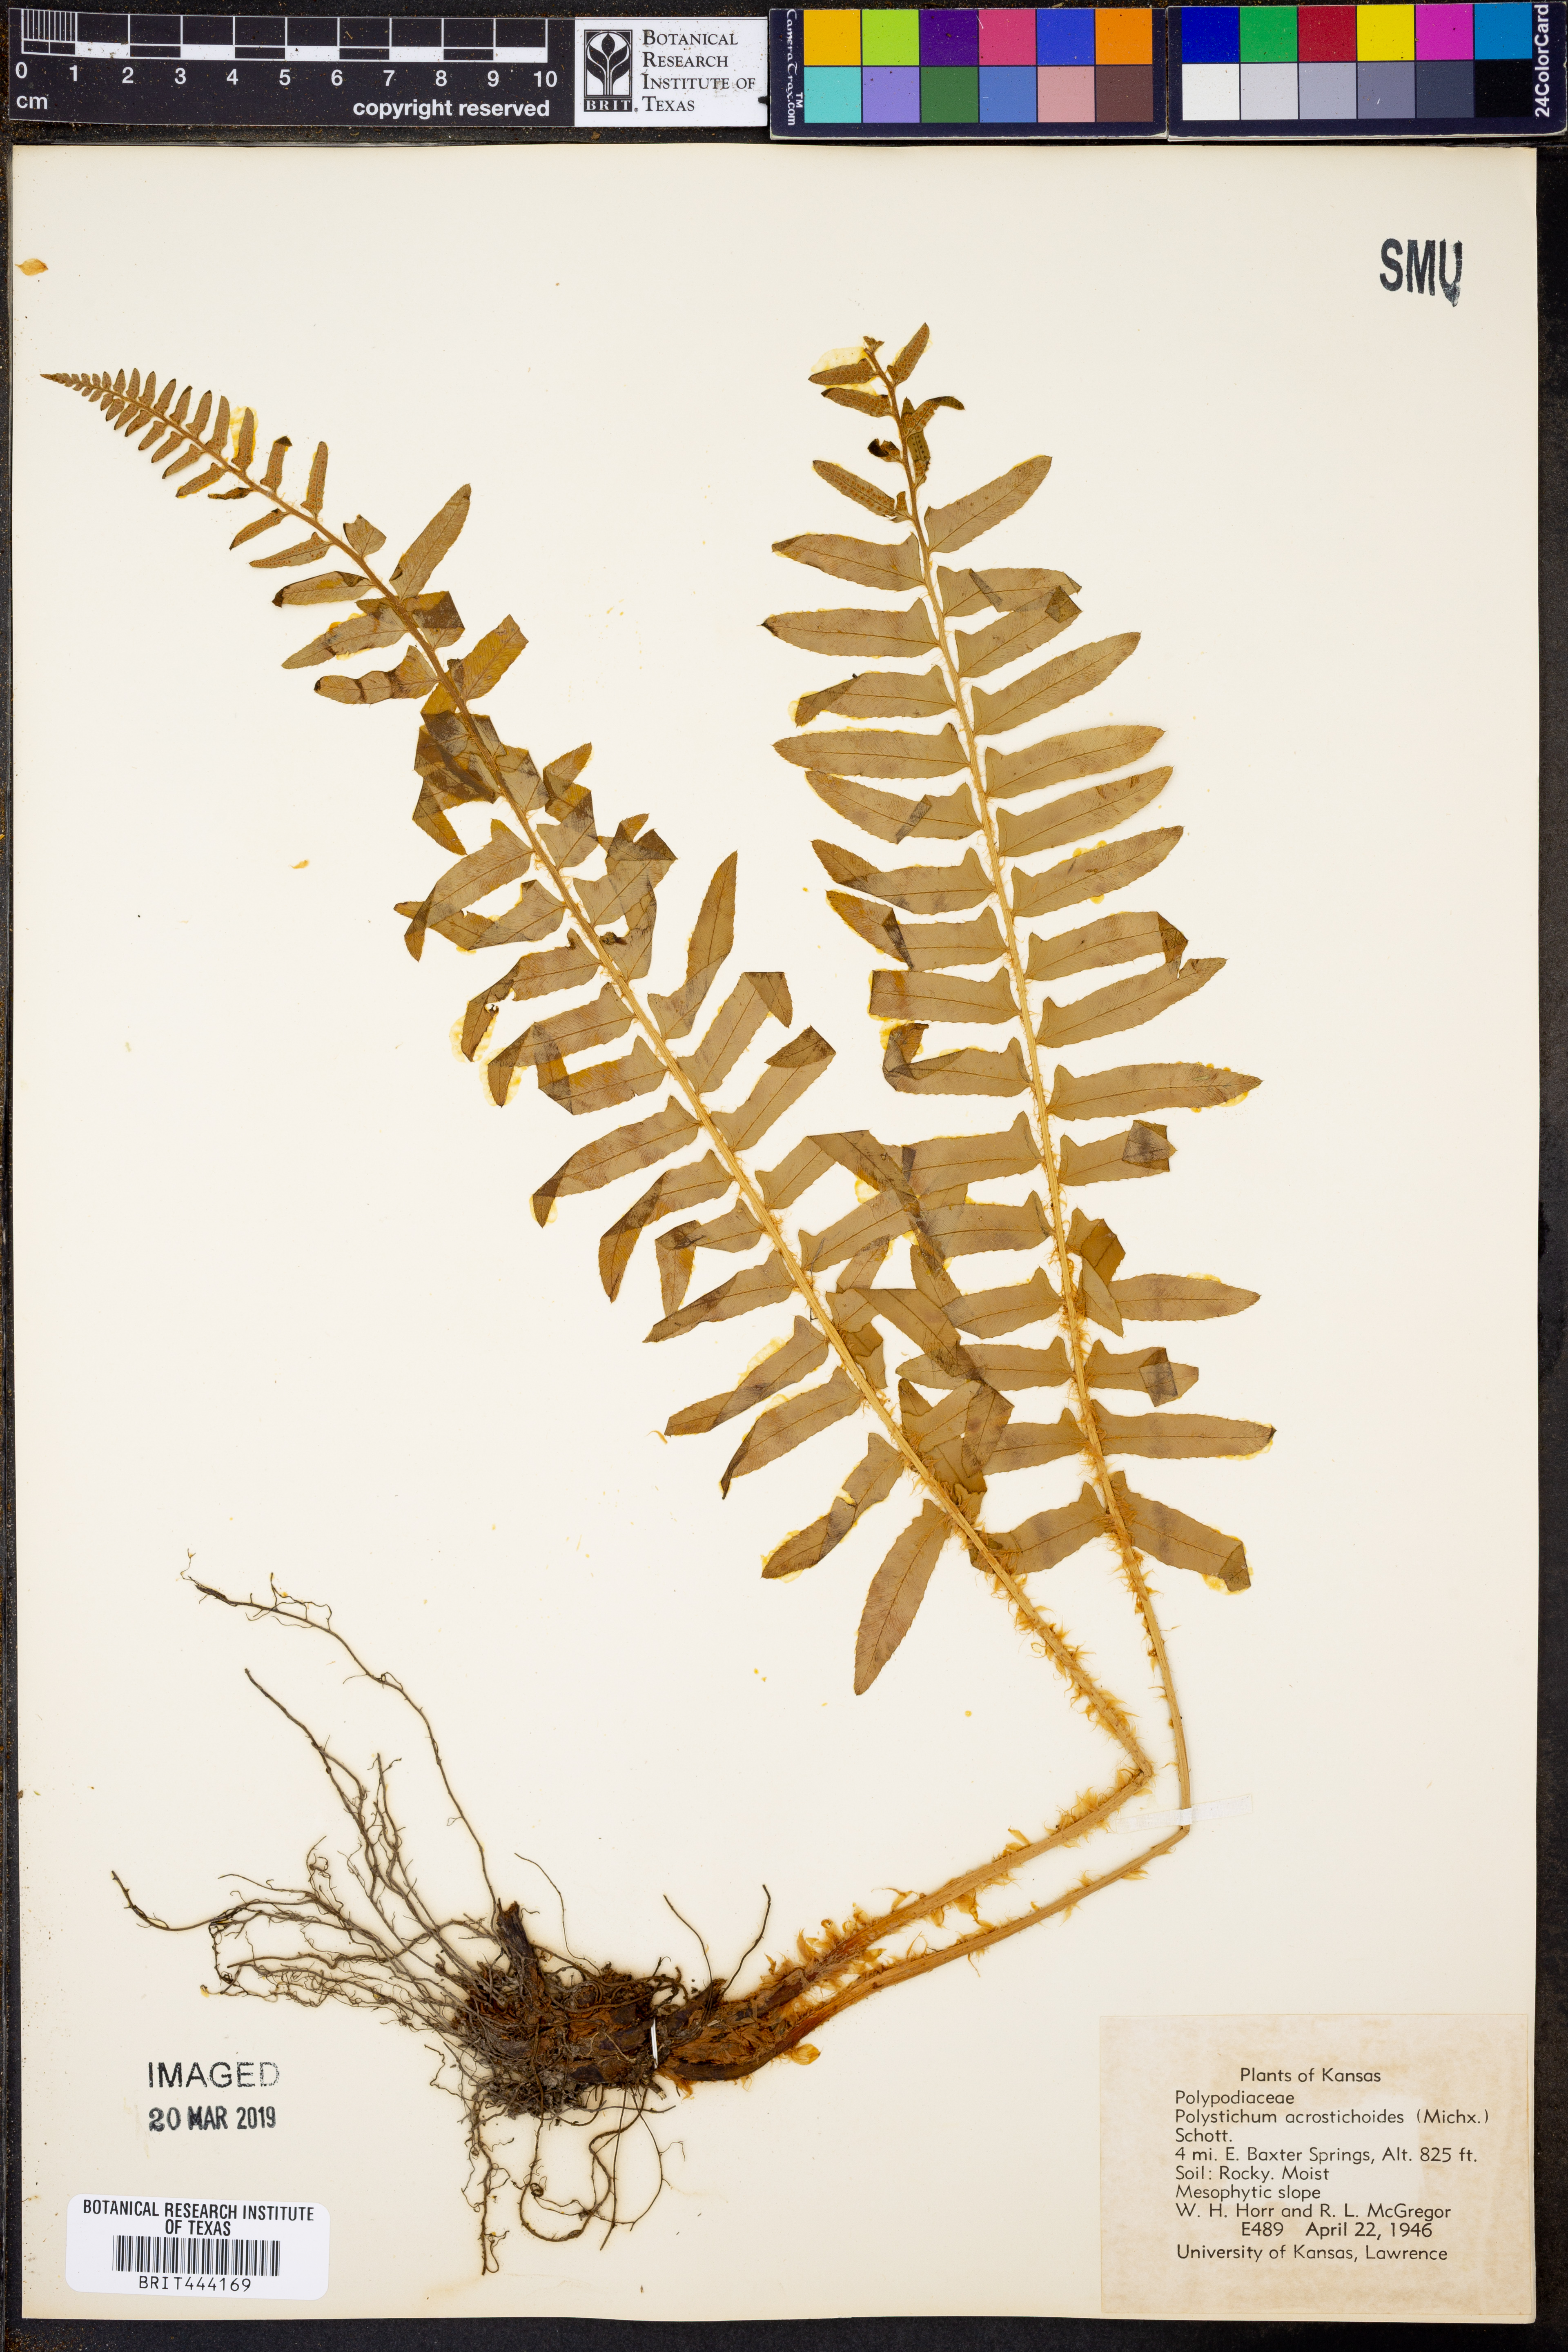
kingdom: Plantae
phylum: Tracheophyta
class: Polypodiopsida
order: Polypodiales
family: Dryopteridaceae
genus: Polystichum
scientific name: Polystichum acrostichoides
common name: Christmas fern
